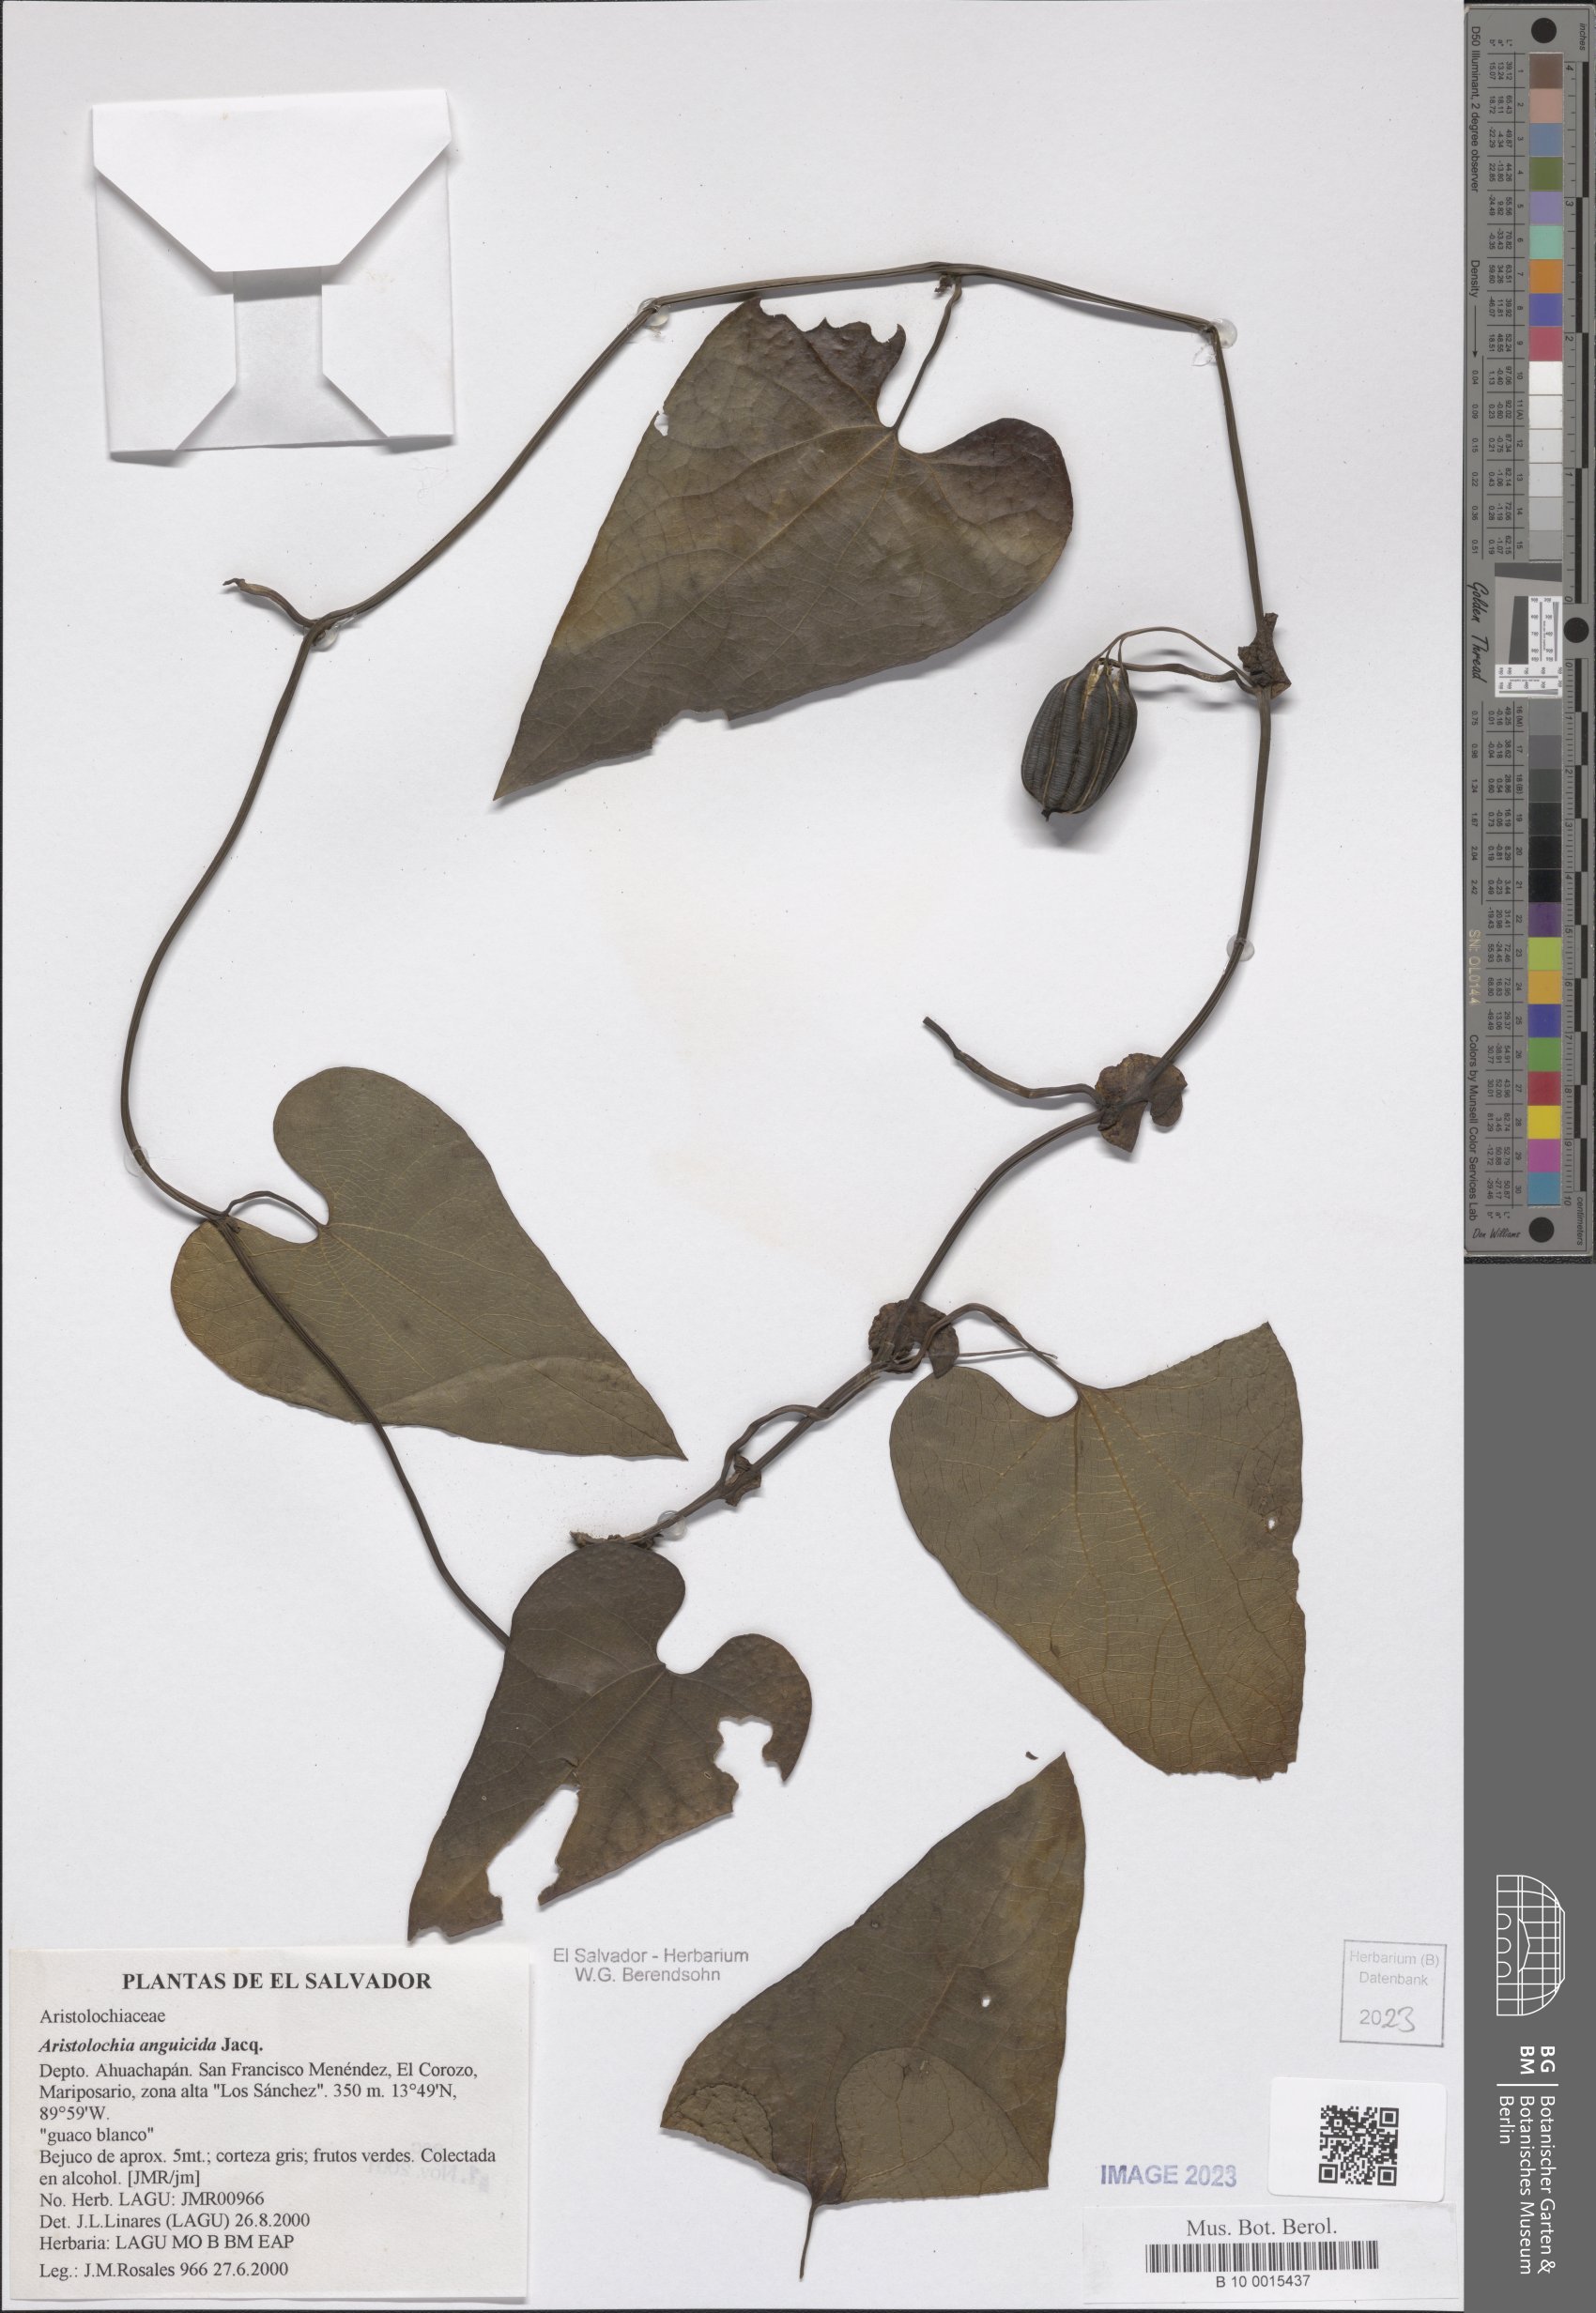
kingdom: Plantae
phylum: Tracheophyta
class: Magnoliopsida
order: Piperales
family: Aristolochiaceae
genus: Aristolochia
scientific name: Aristolochia anguicida
